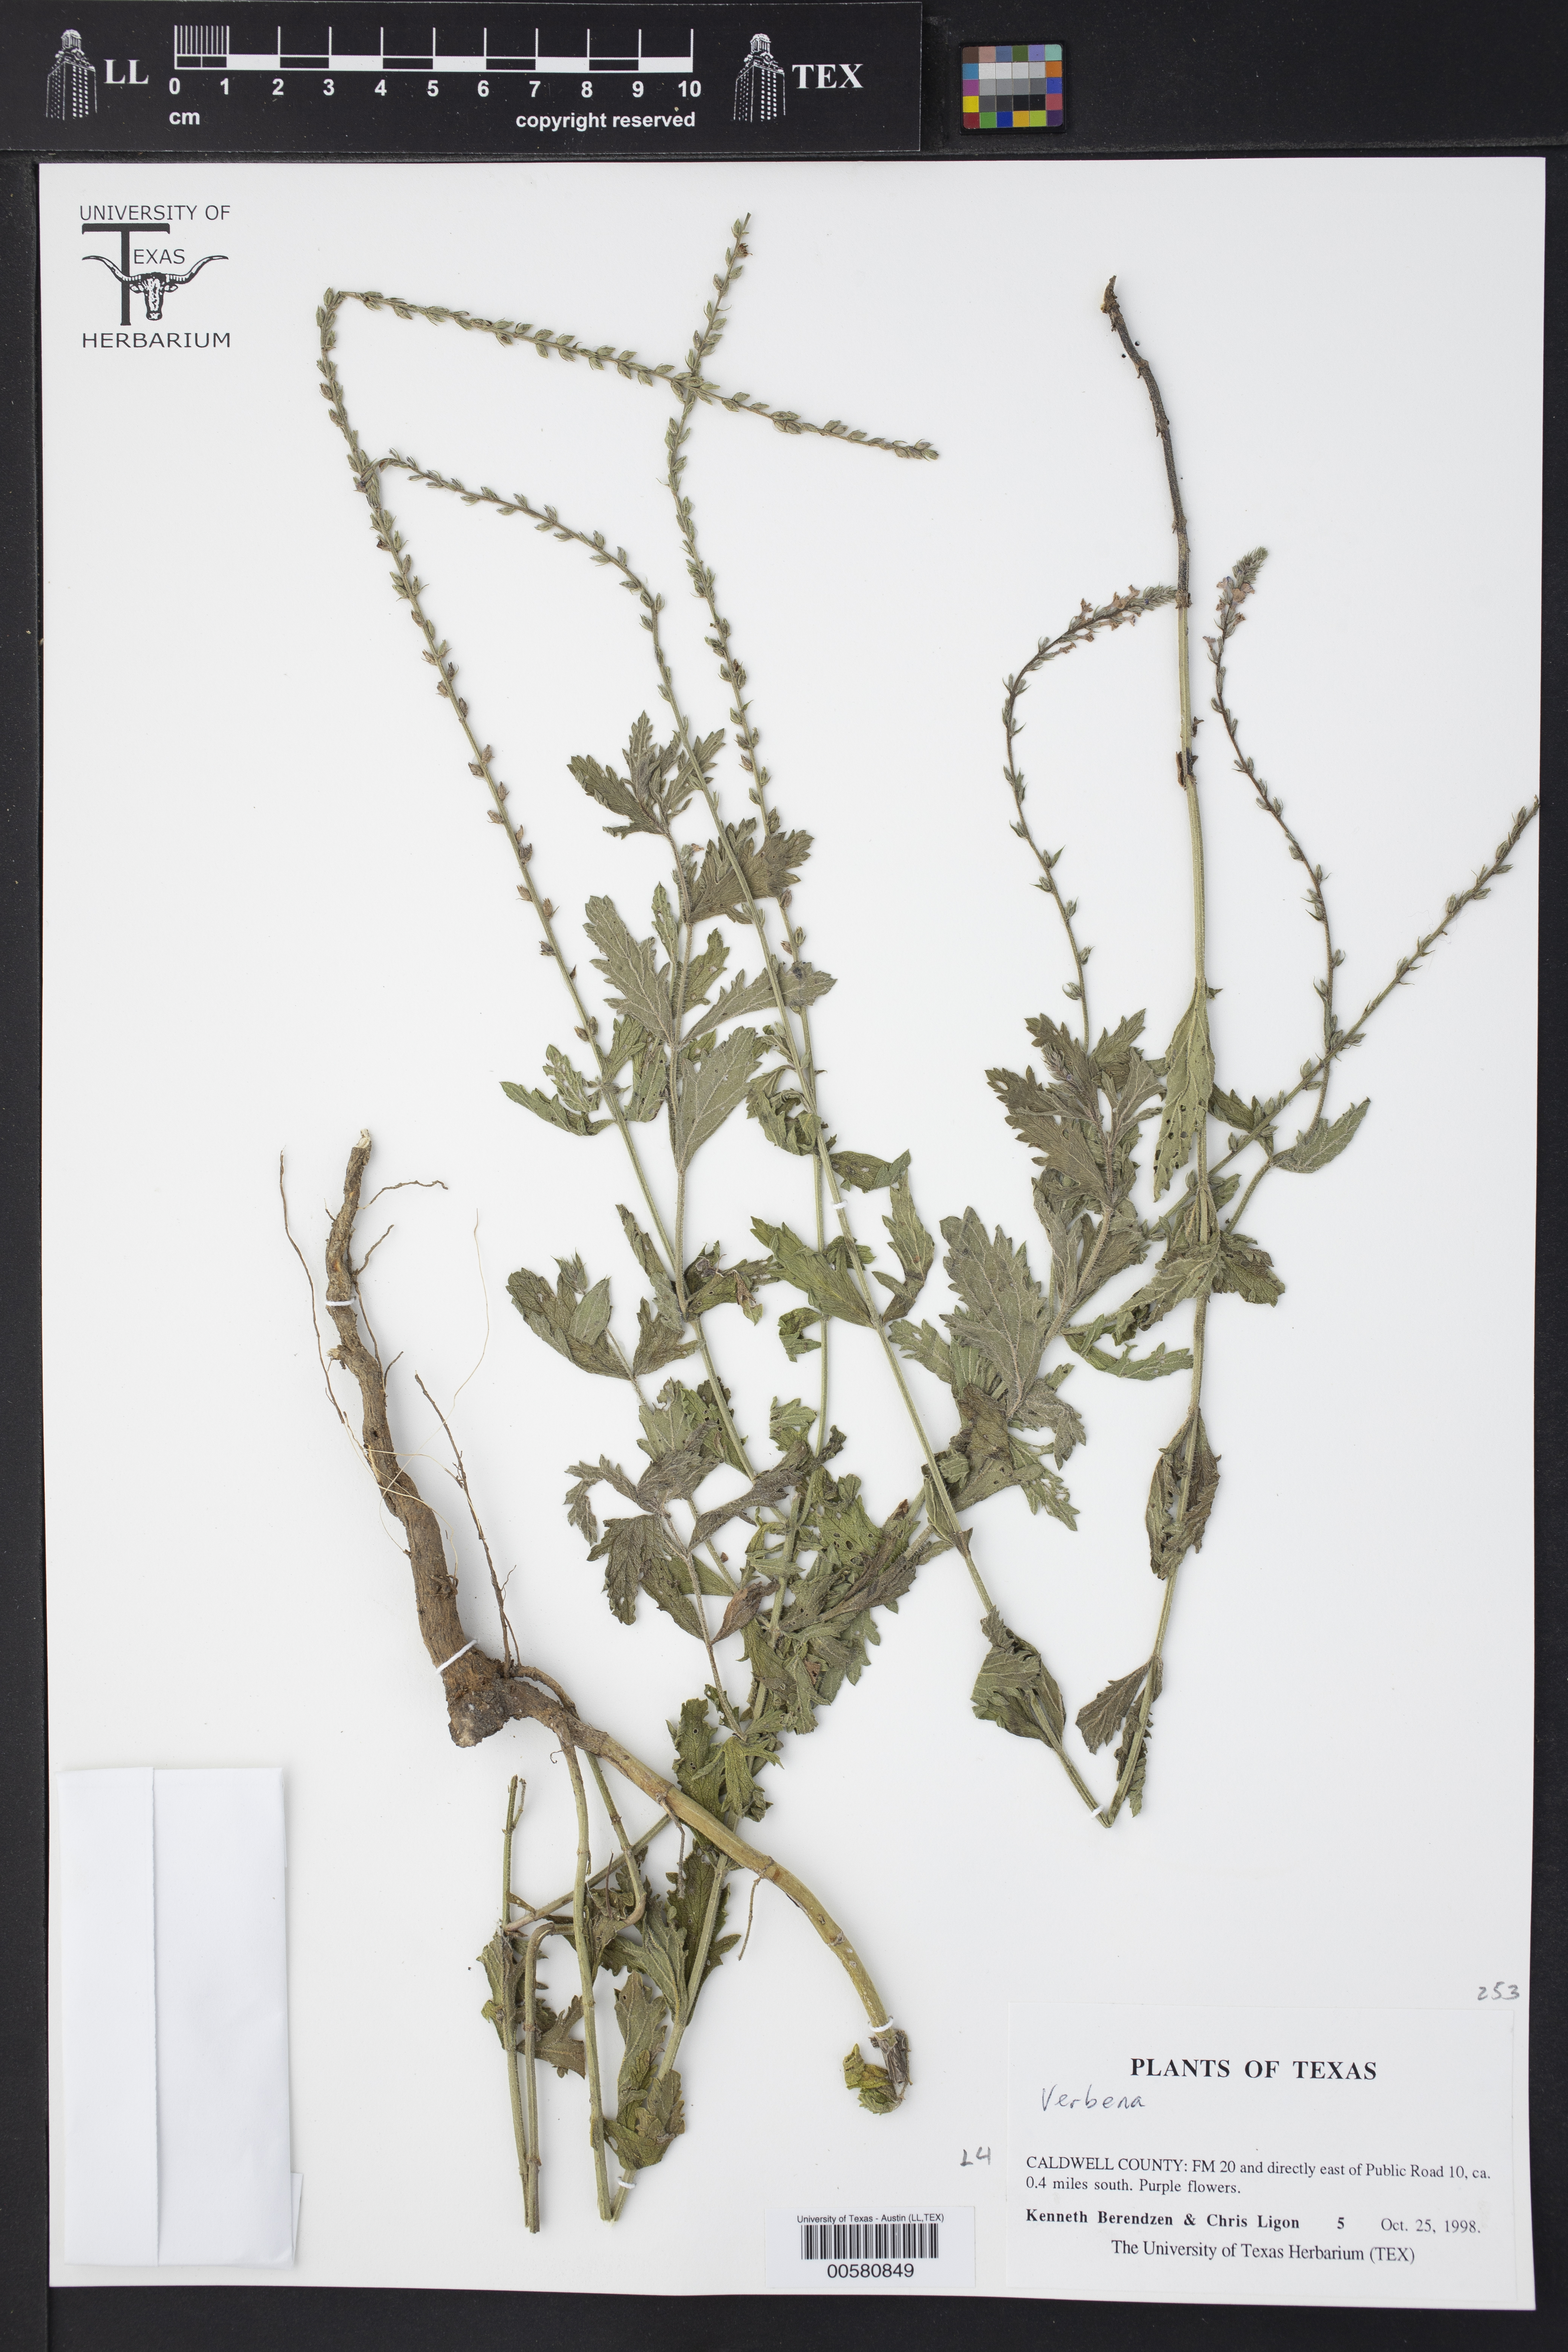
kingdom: Plantae
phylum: Tracheophyta
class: Magnoliopsida
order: Lamiales
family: Verbenaceae
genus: Verbena
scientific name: Verbena
